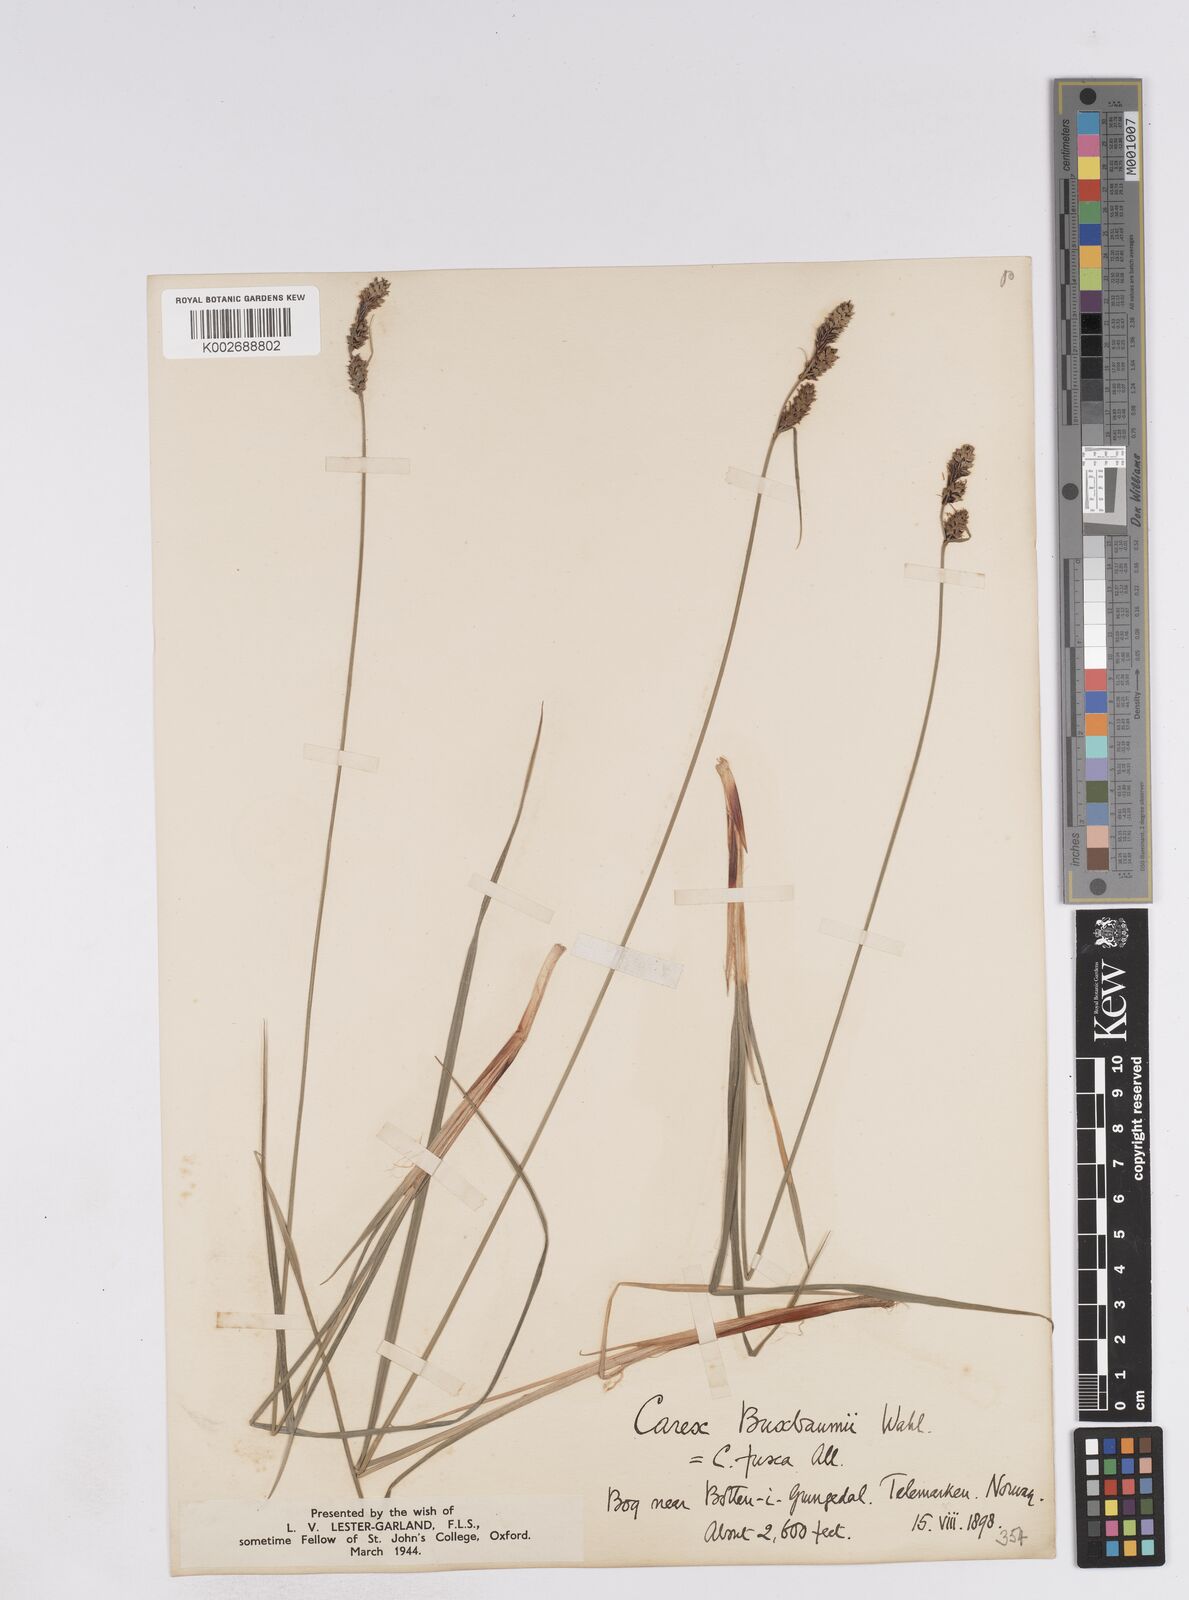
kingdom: Plantae
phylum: Tracheophyta
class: Liliopsida
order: Poales
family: Cyperaceae
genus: Carex
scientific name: Carex buxbaumii
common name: Club sedge
